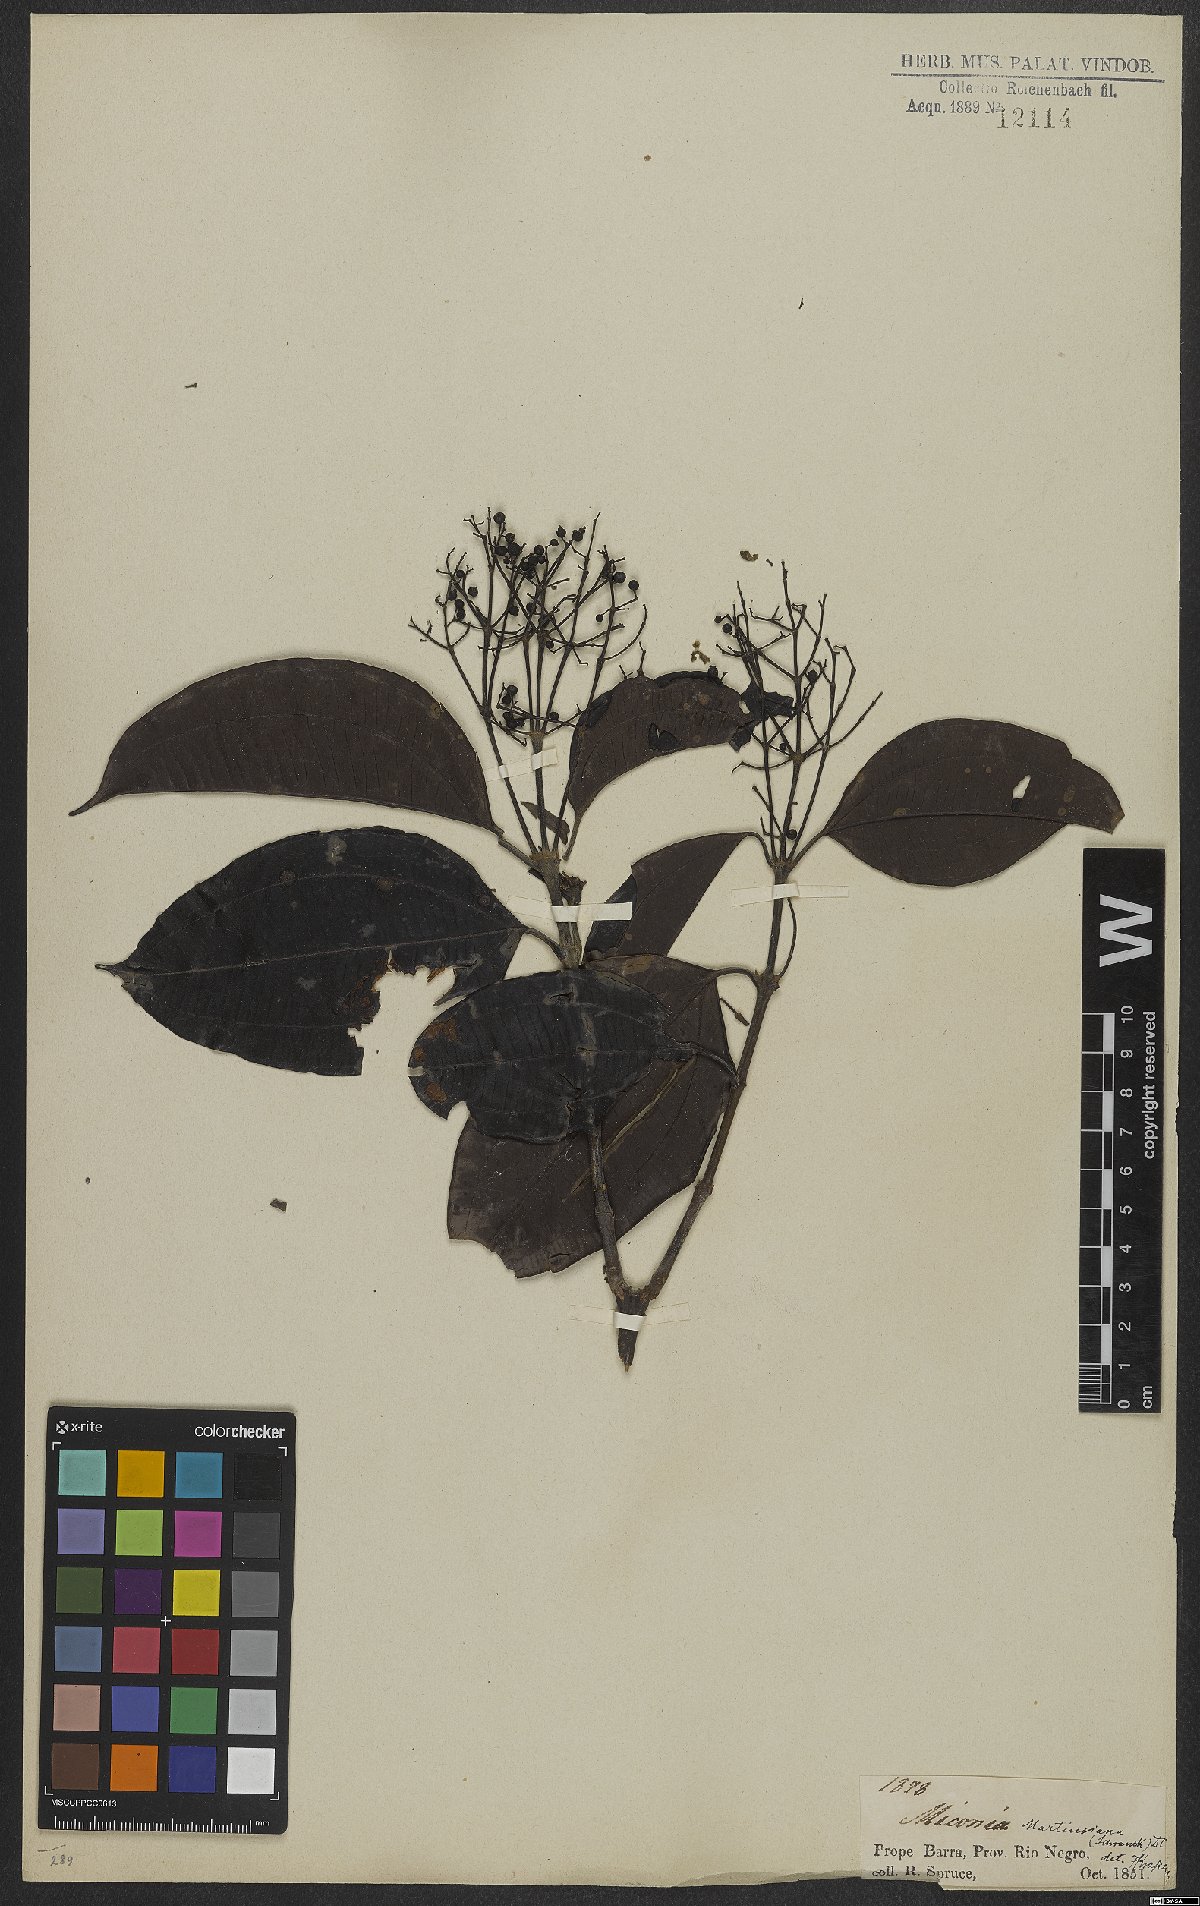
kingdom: Plantae
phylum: Tracheophyta
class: Magnoliopsida
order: Myrtales
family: Melastomataceae
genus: Miconia
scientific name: Miconia cinnamomifolia
